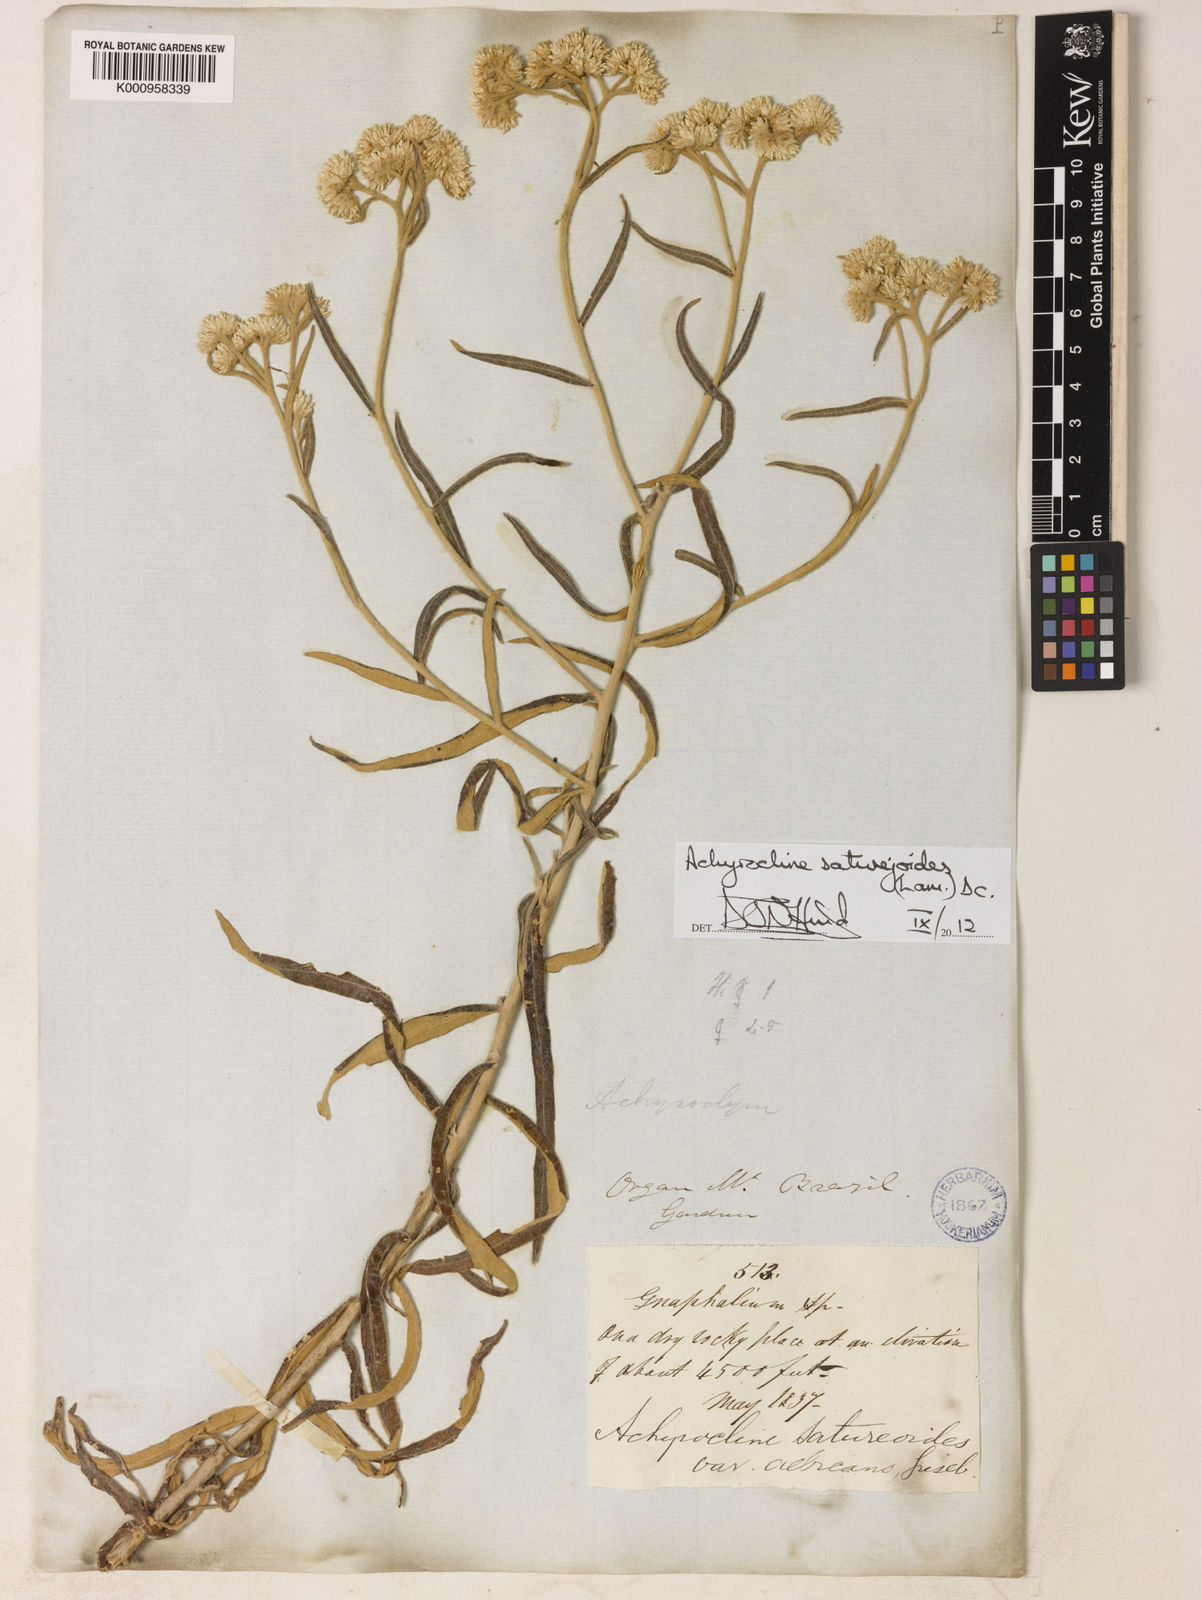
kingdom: Plantae
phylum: Tracheophyta
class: Magnoliopsida
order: Asterales
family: Asteraceae
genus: Achyrocline
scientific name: Achyrocline satureioides
